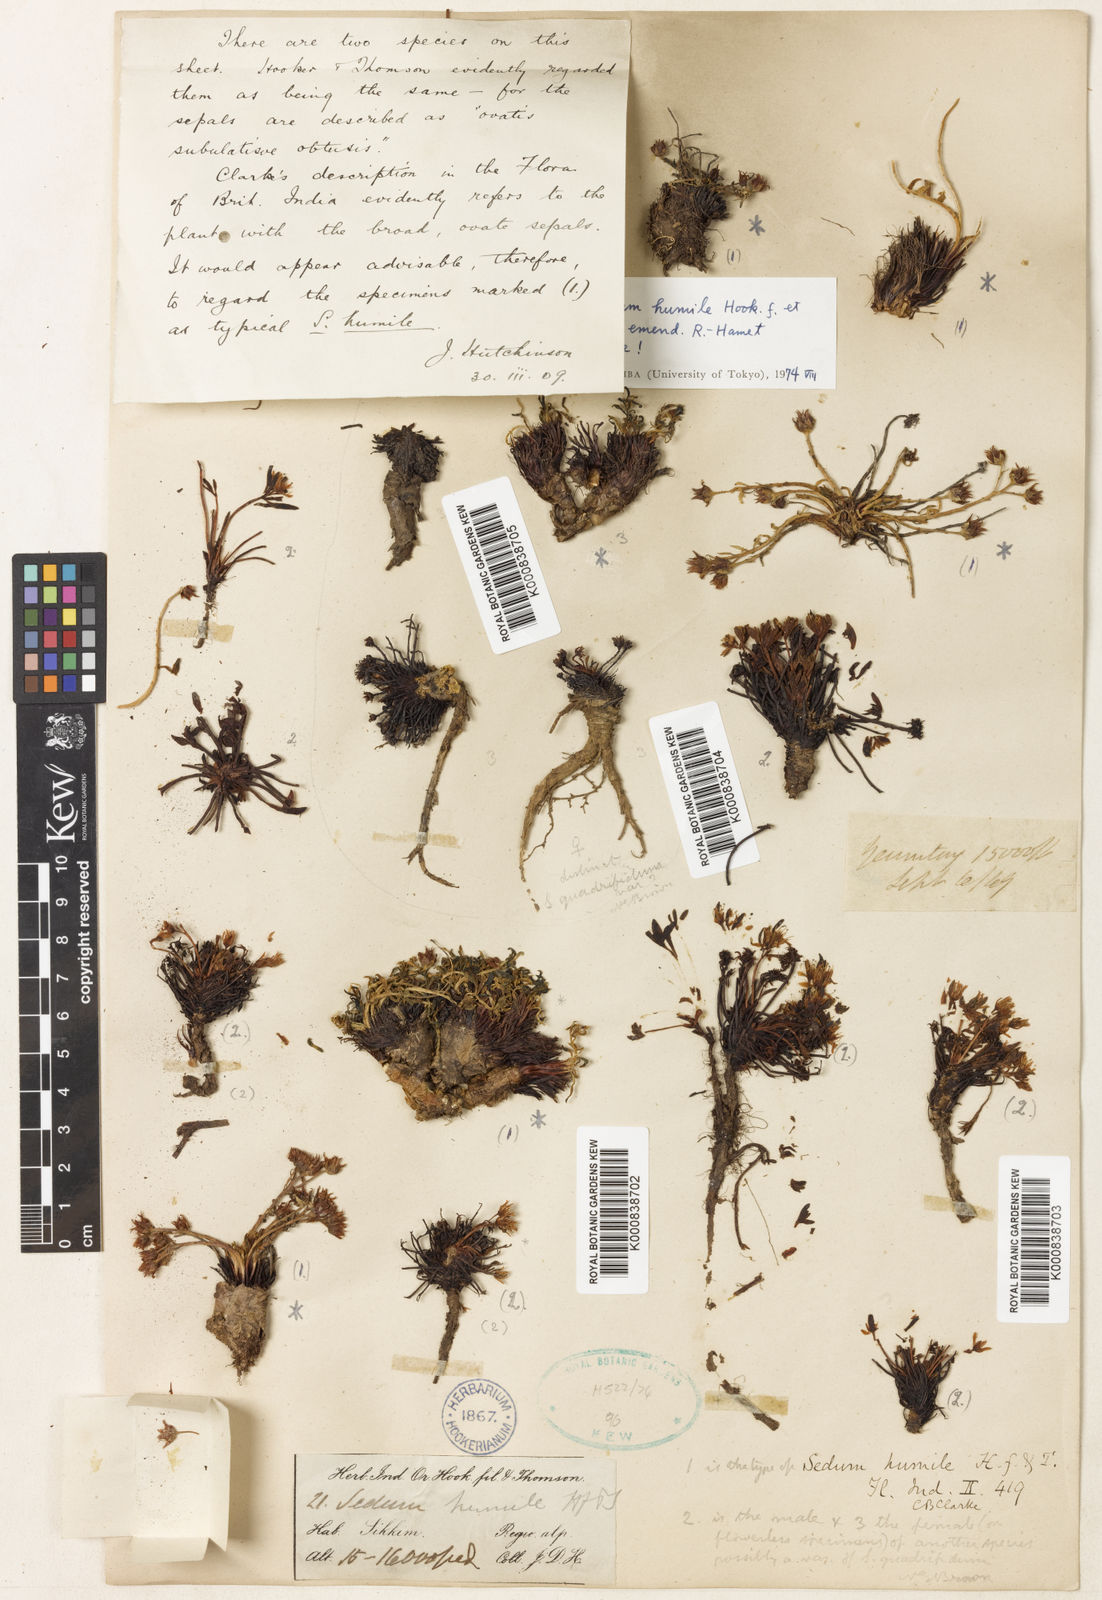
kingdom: Plantae
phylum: Tracheophyta
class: Magnoliopsida
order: Saxifragales
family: Crassulaceae
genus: Rhodiola
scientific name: Rhodiola humilis
